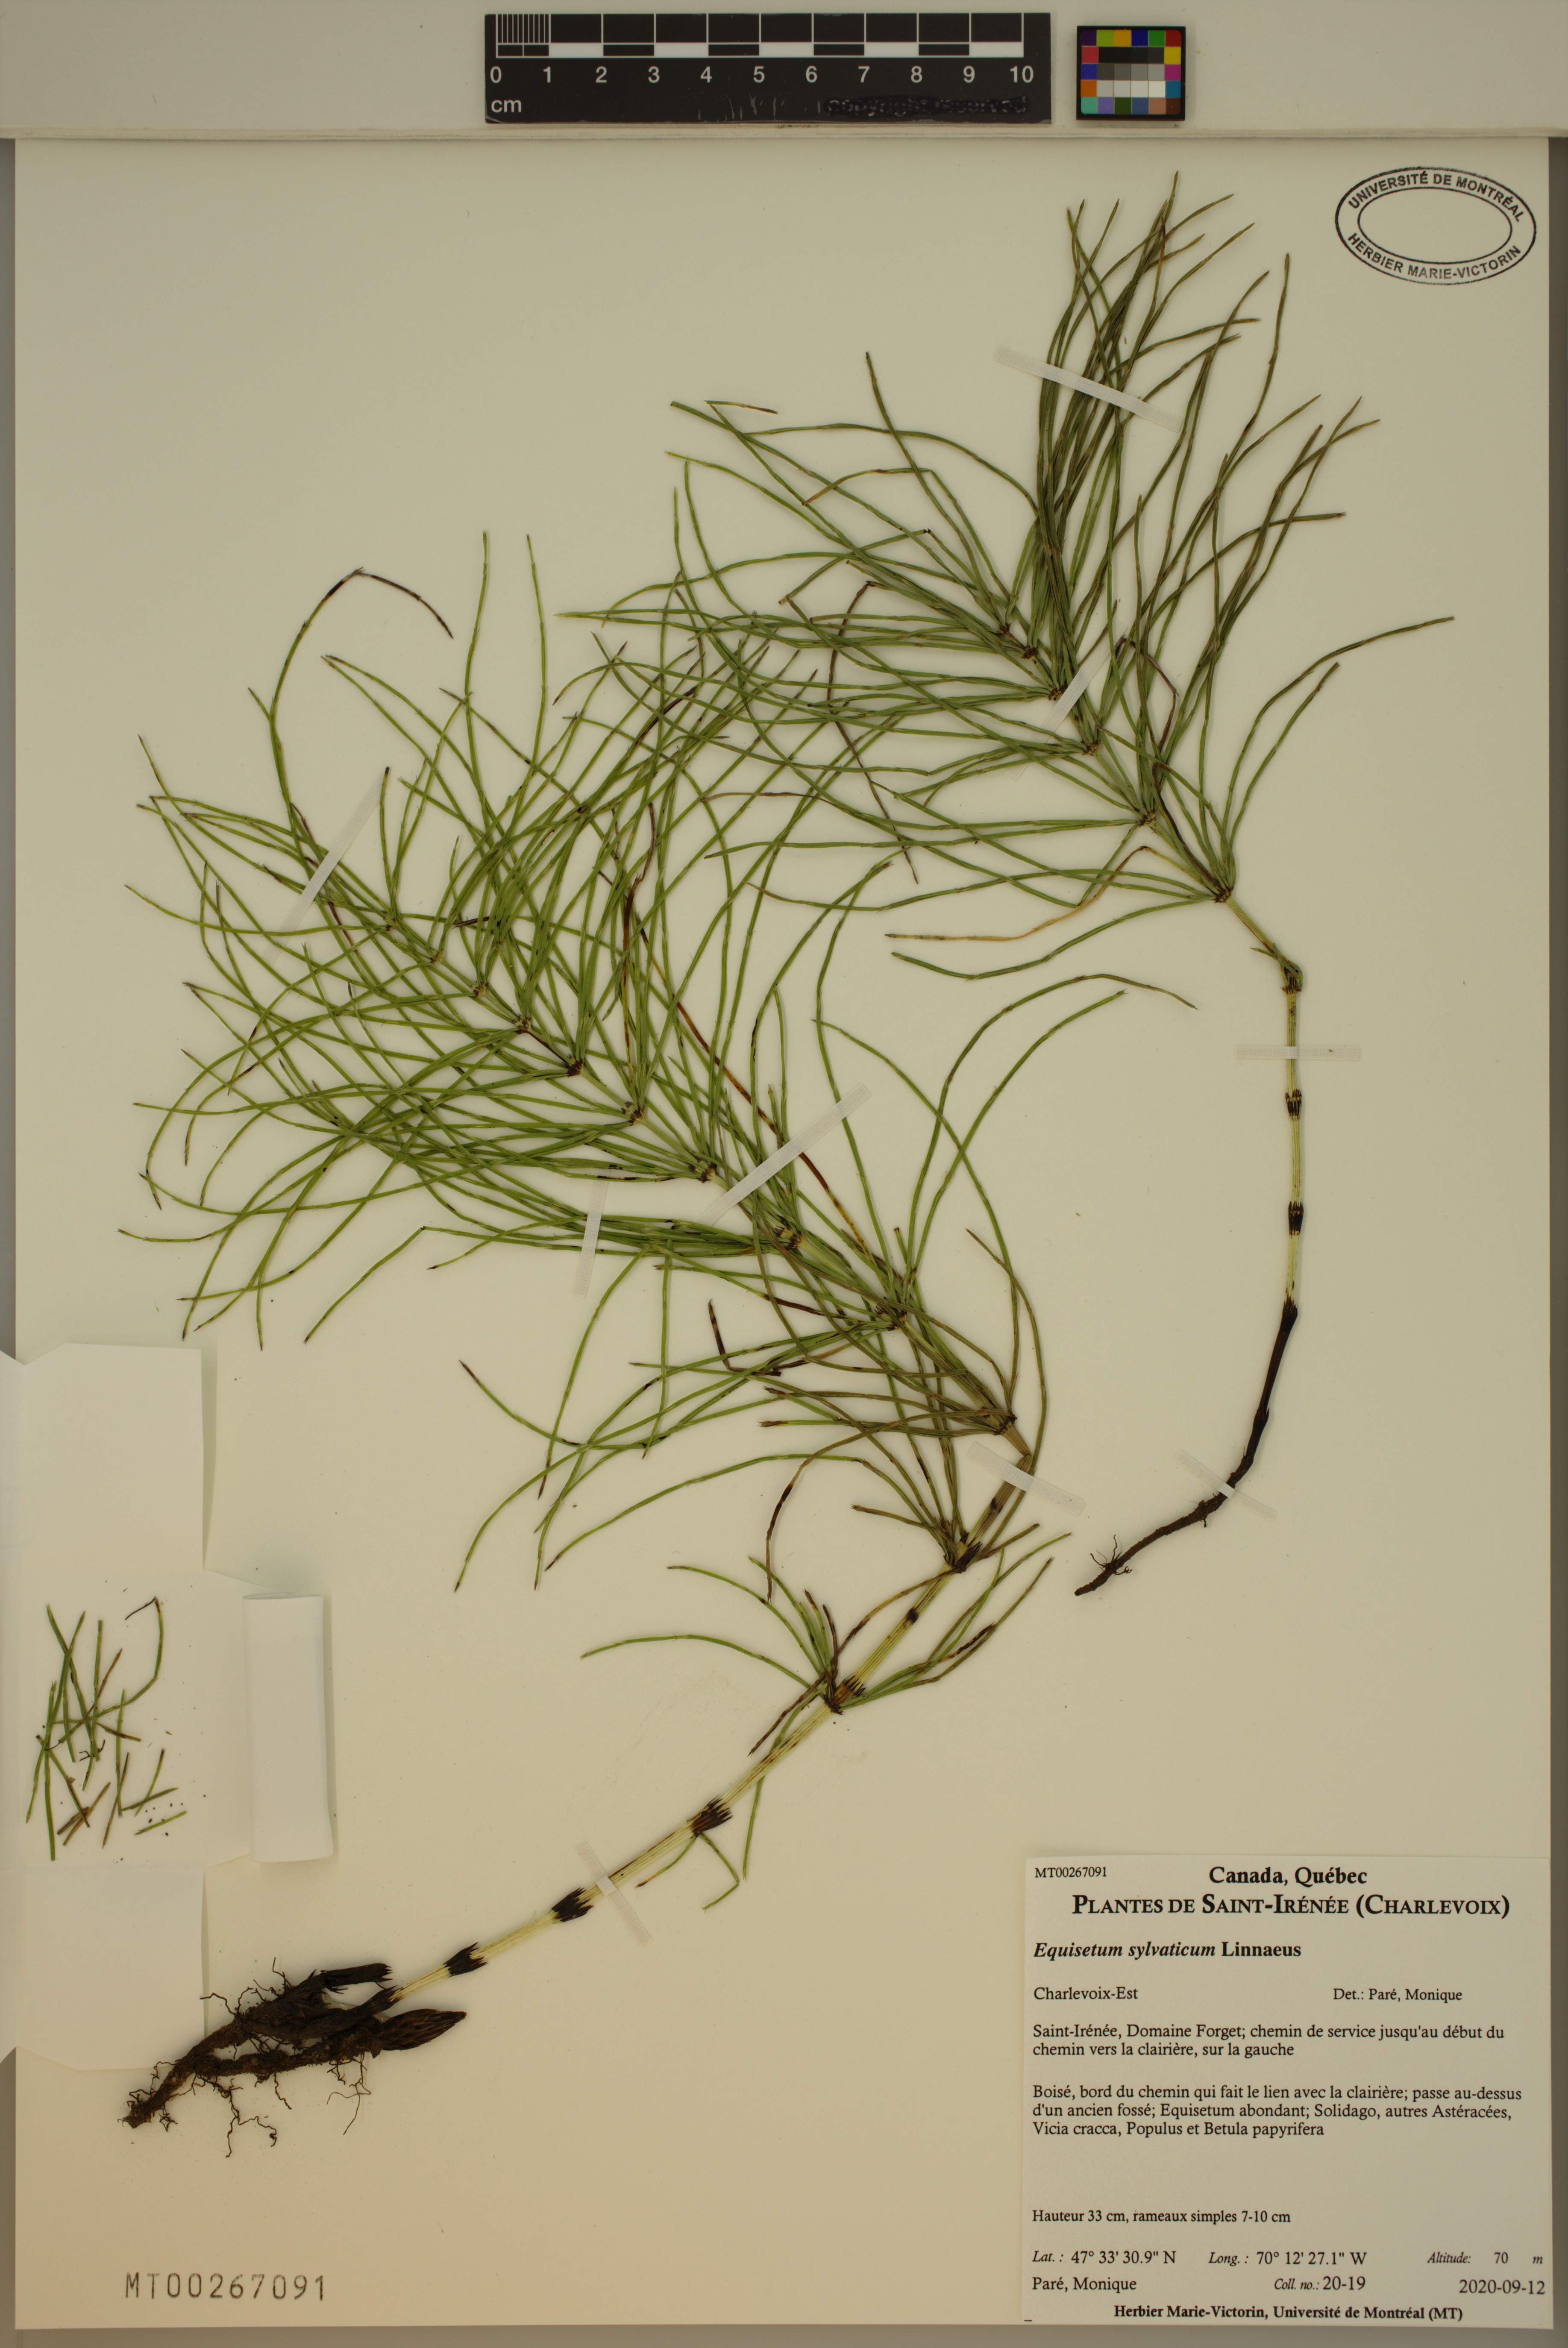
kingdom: Plantae
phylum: Tracheophyta
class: Polypodiopsida
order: Equisetales
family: Equisetaceae
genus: Equisetum
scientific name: Equisetum sylvaticum
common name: Wood horsetail
